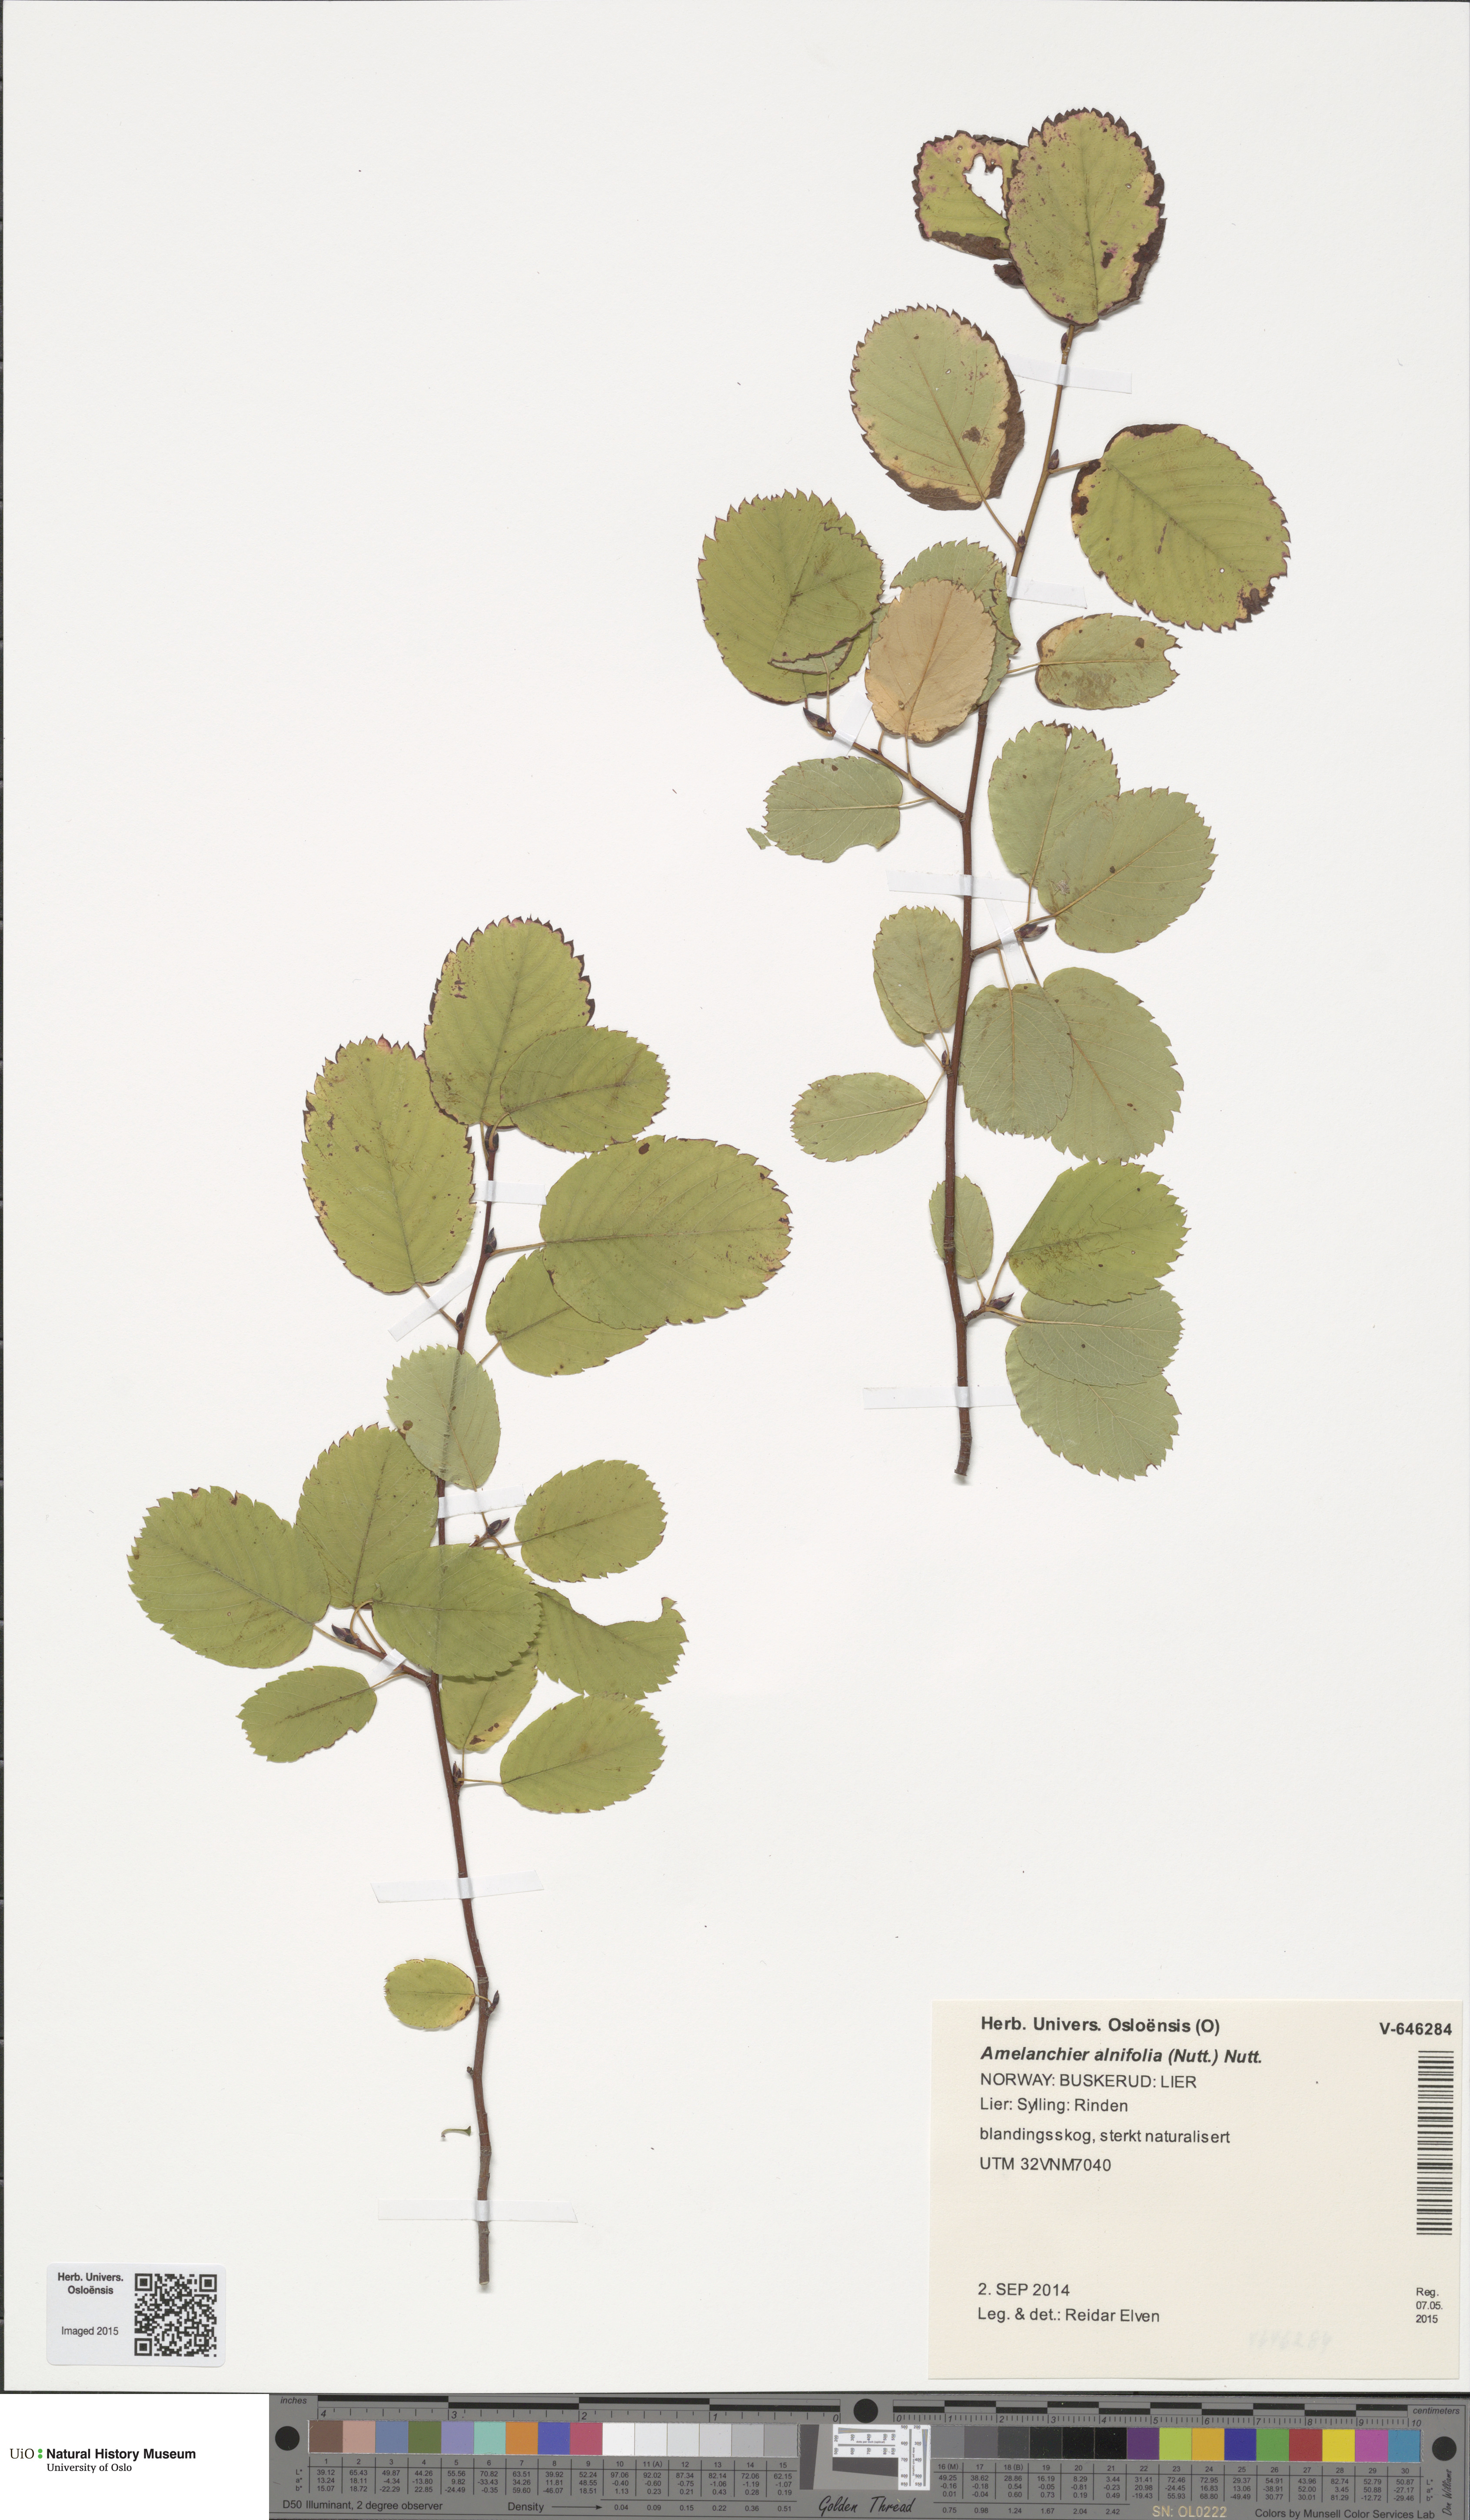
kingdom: Plantae
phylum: Tracheophyta
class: Magnoliopsida
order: Rosales
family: Rosaceae
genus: Amelanchier
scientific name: Amelanchier alnifolia
